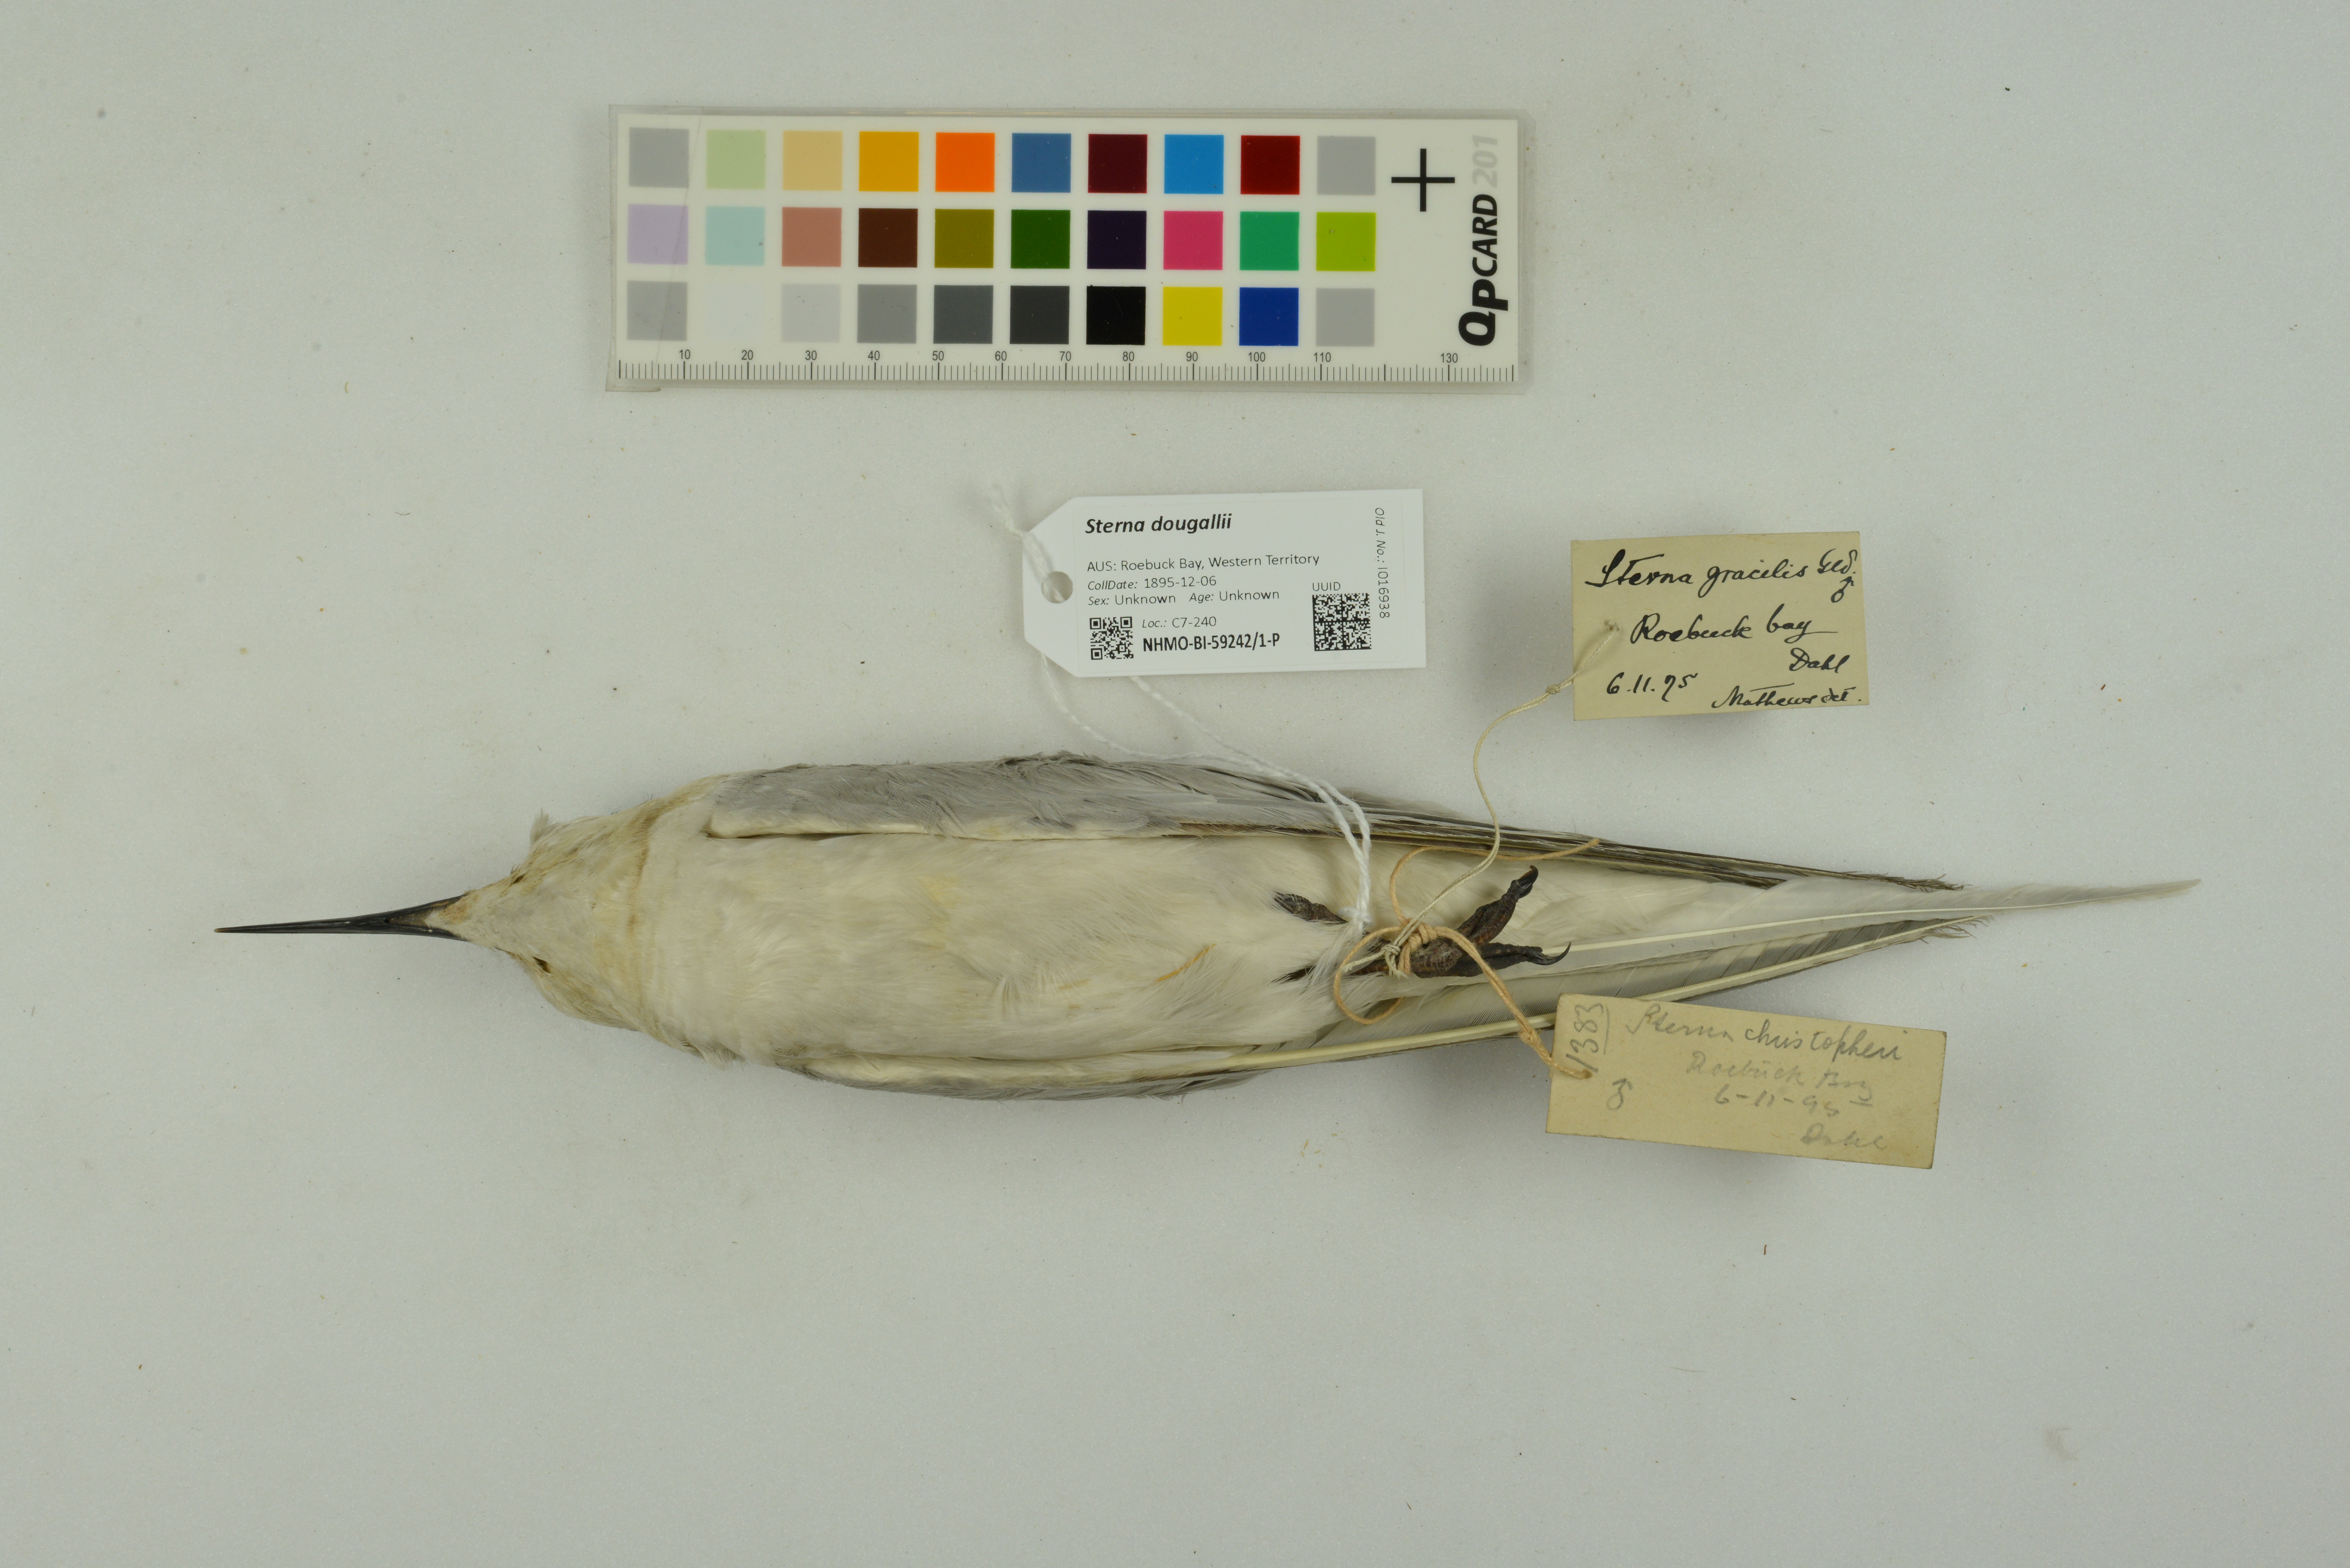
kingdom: Animalia
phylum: Chordata
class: Aves
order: Charadriiformes
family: Laridae
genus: Sterna
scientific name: Sterna dougallii
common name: Roseate tern
